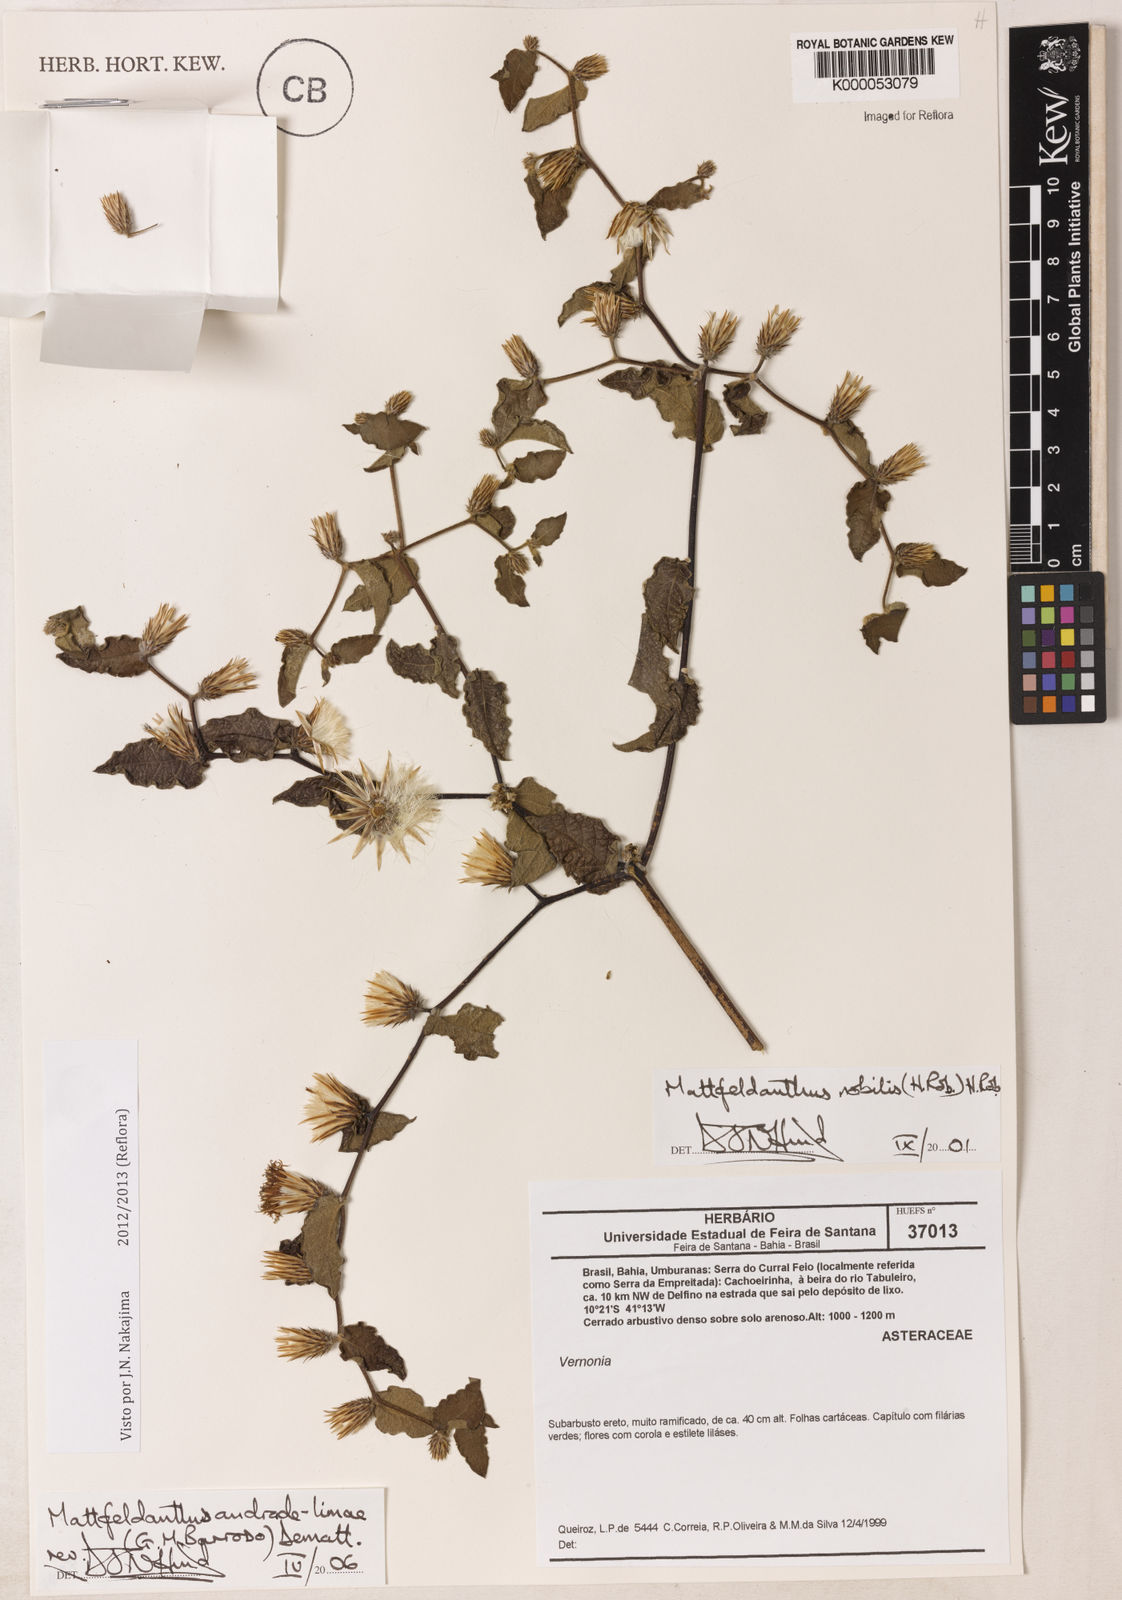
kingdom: Plantae
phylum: Tracheophyta
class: Magnoliopsida
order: Asterales
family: Asteraceae
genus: Mattfeldanthus
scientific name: Mattfeldanthus andrade-limae
